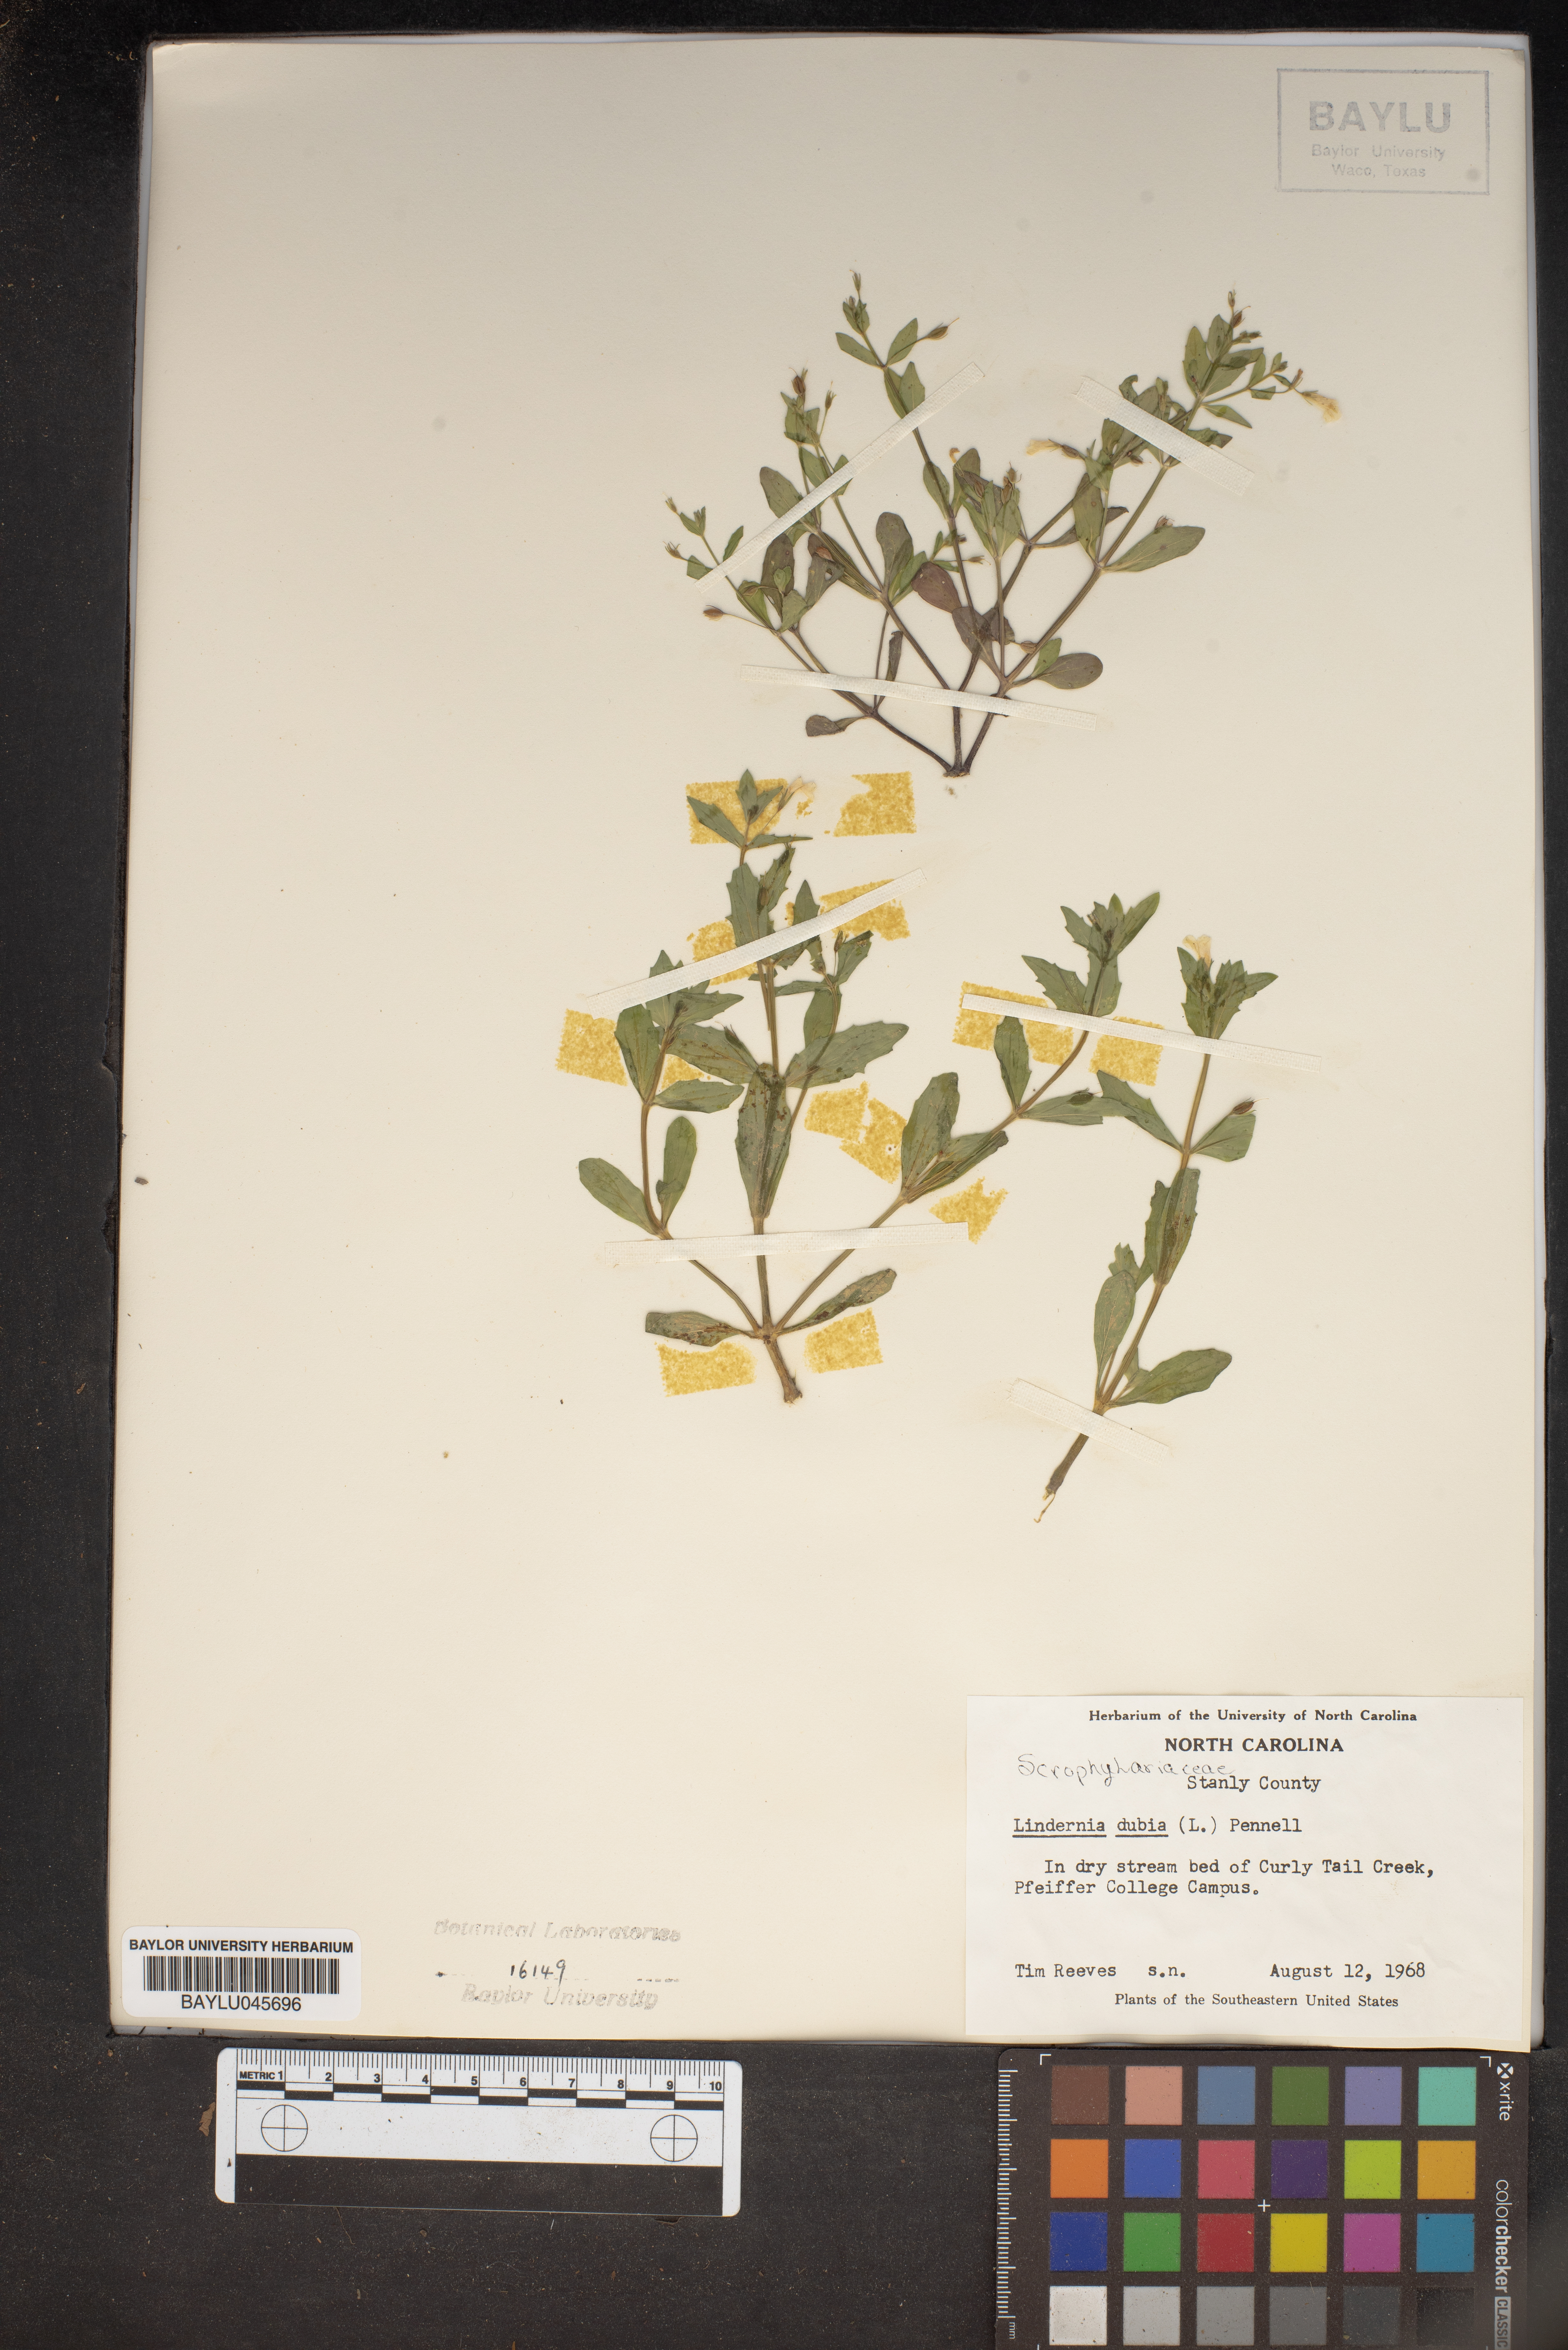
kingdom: Plantae
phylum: Tracheophyta
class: Magnoliopsida
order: Lamiales
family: Linderniaceae
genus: Lindernia
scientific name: Lindernia dubia
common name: Annual false pimpernel
